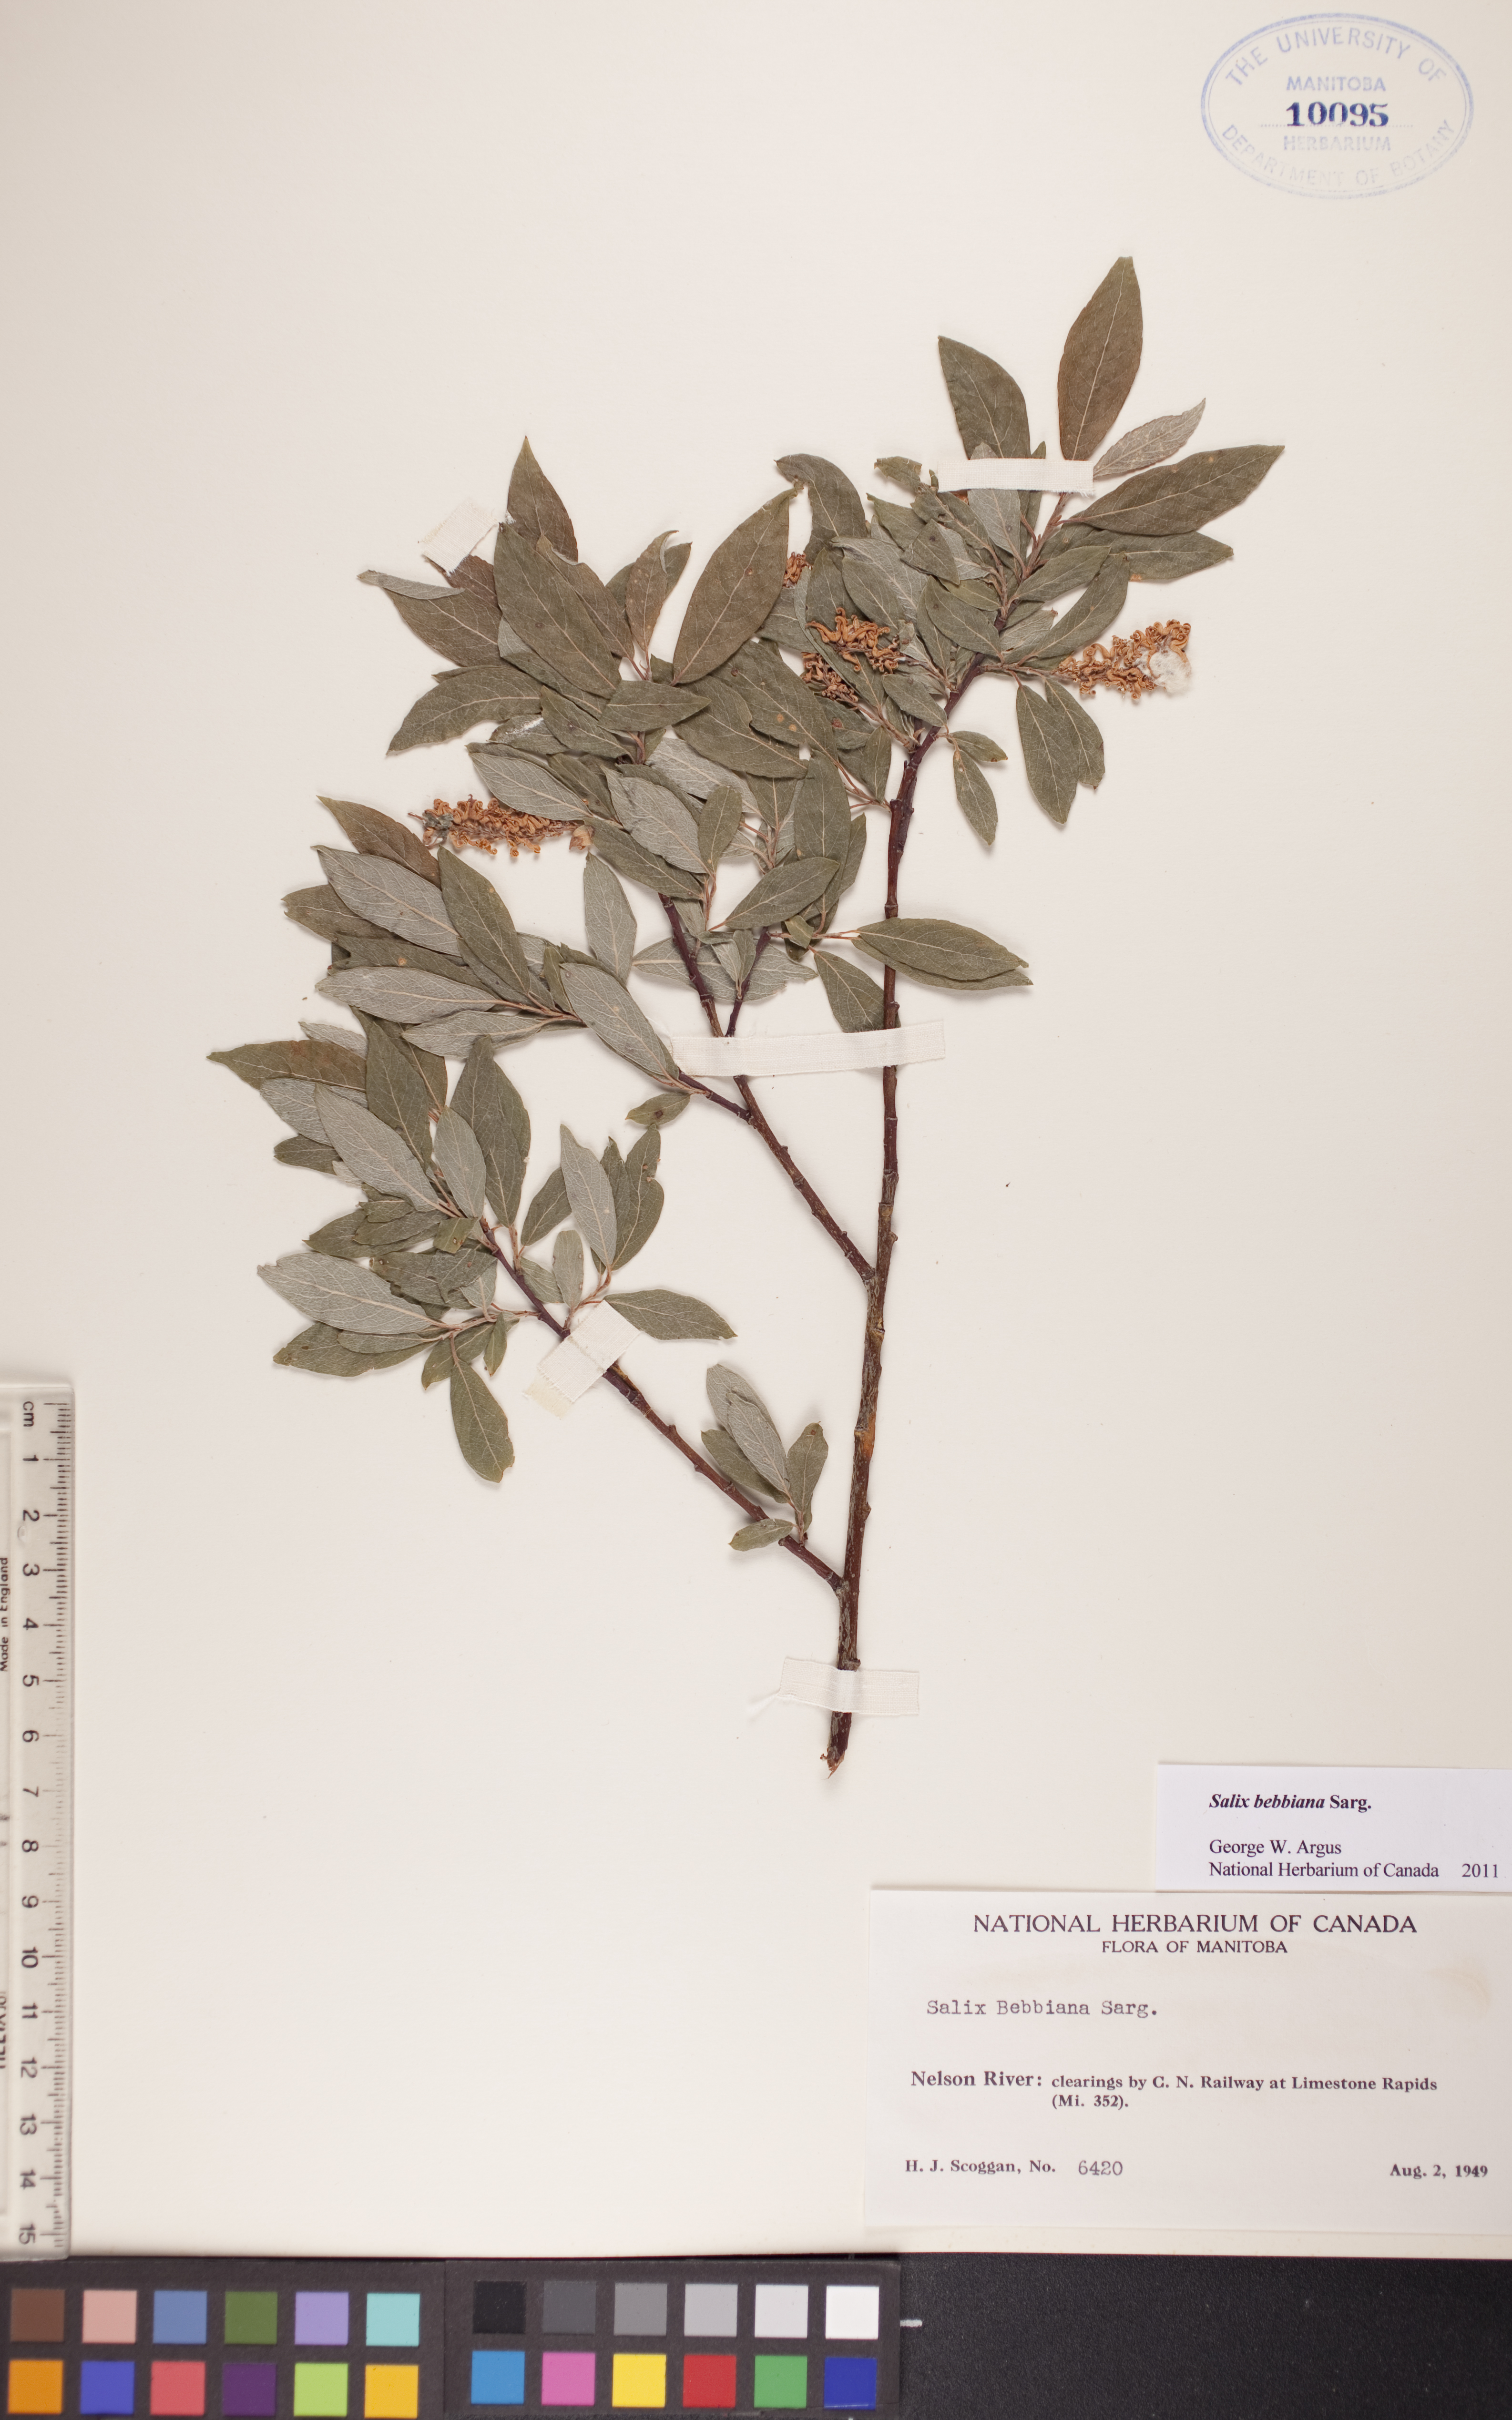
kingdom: Plantae
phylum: Tracheophyta
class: Magnoliopsida
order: Malpighiales
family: Salicaceae
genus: Salix
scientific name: Salix bebbiana
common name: Bebb's willow
